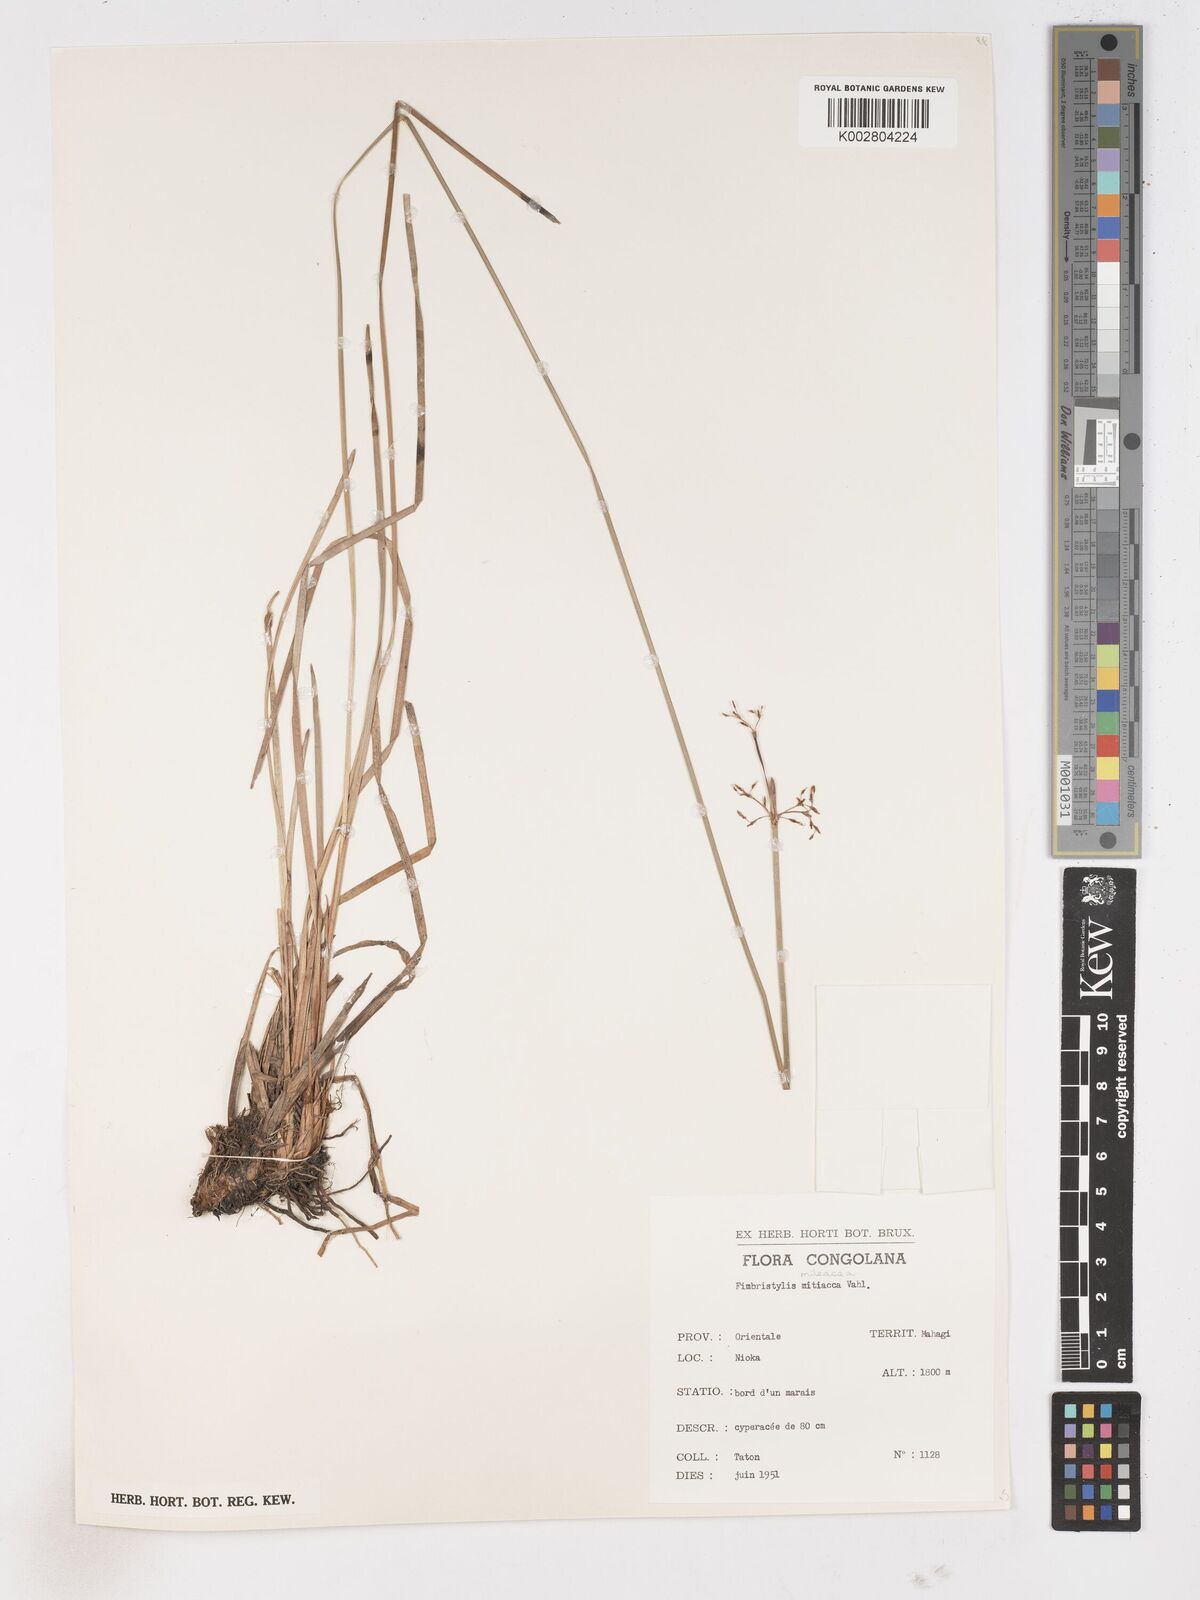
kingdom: Plantae
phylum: Tracheophyta
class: Liliopsida
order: Poales
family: Cyperaceae
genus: Fimbristylis
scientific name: Fimbristylis littoralis
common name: Fimbry
